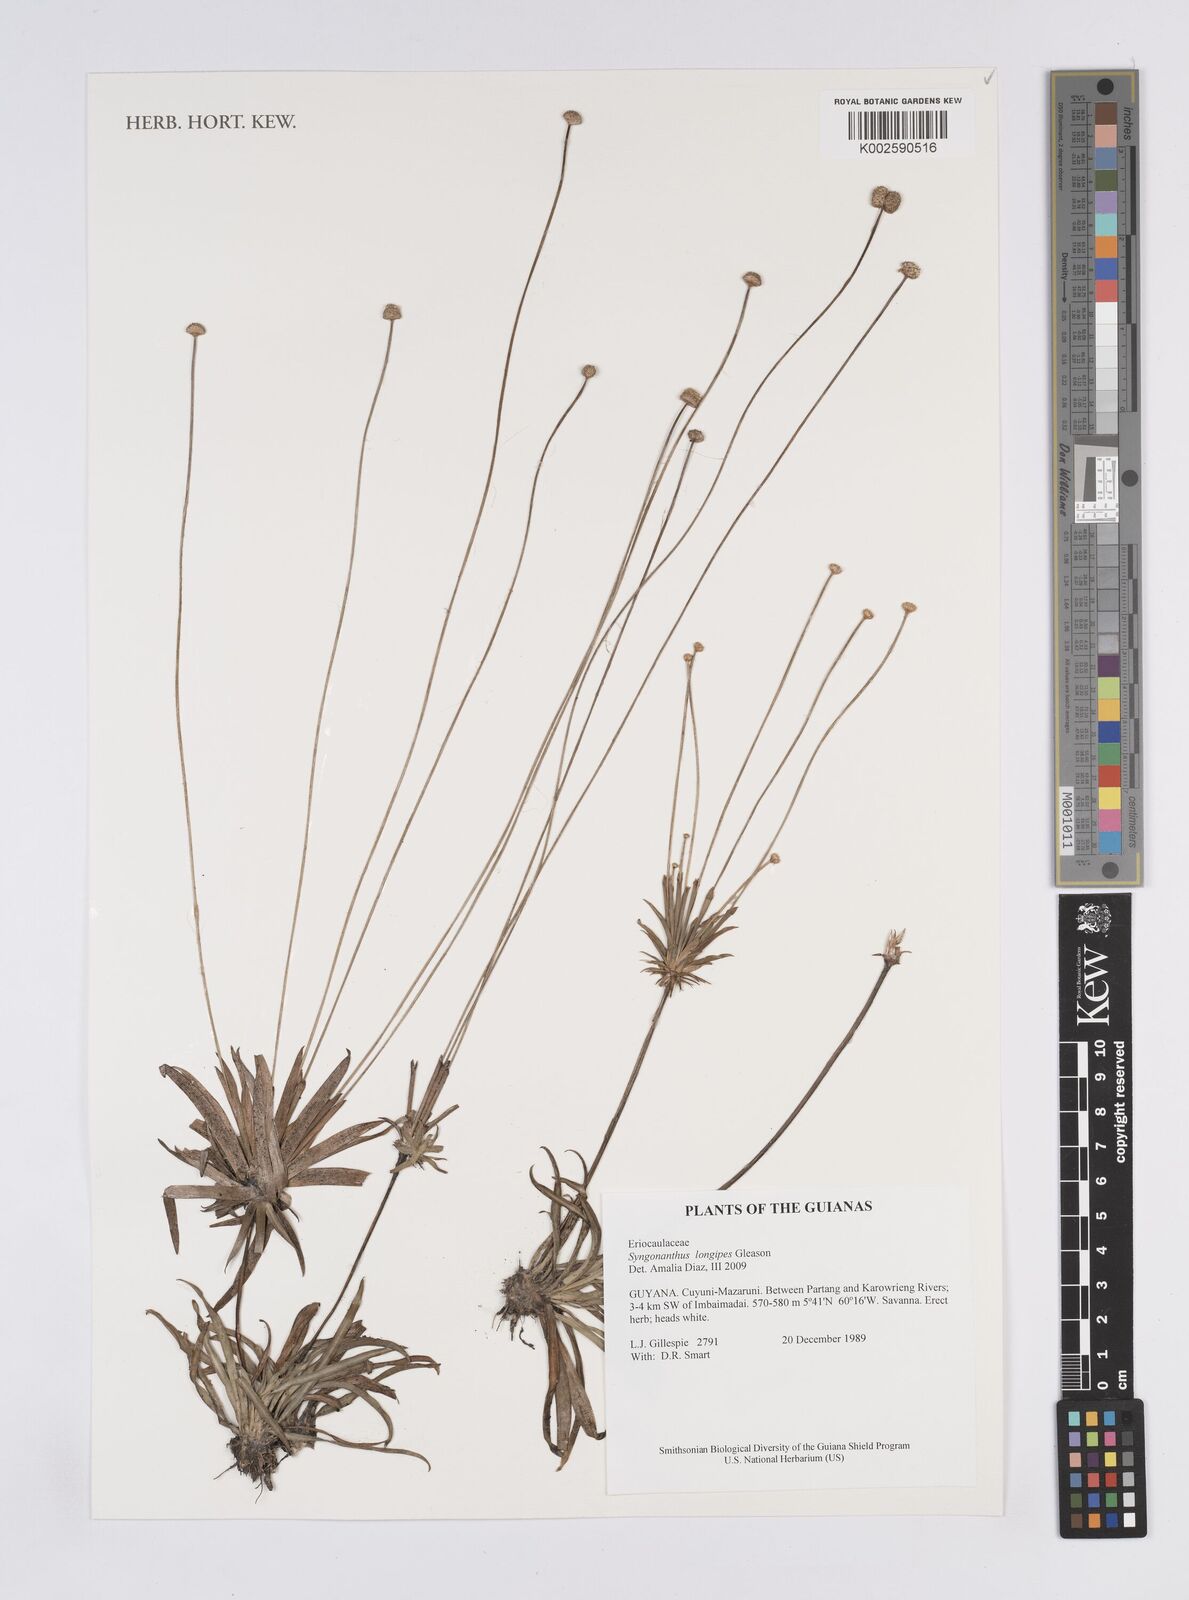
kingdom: Plantae
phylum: Tracheophyta
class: Liliopsida
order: Poales
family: Eriocaulaceae
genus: Syngonanthus
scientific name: Syngonanthus longipes
